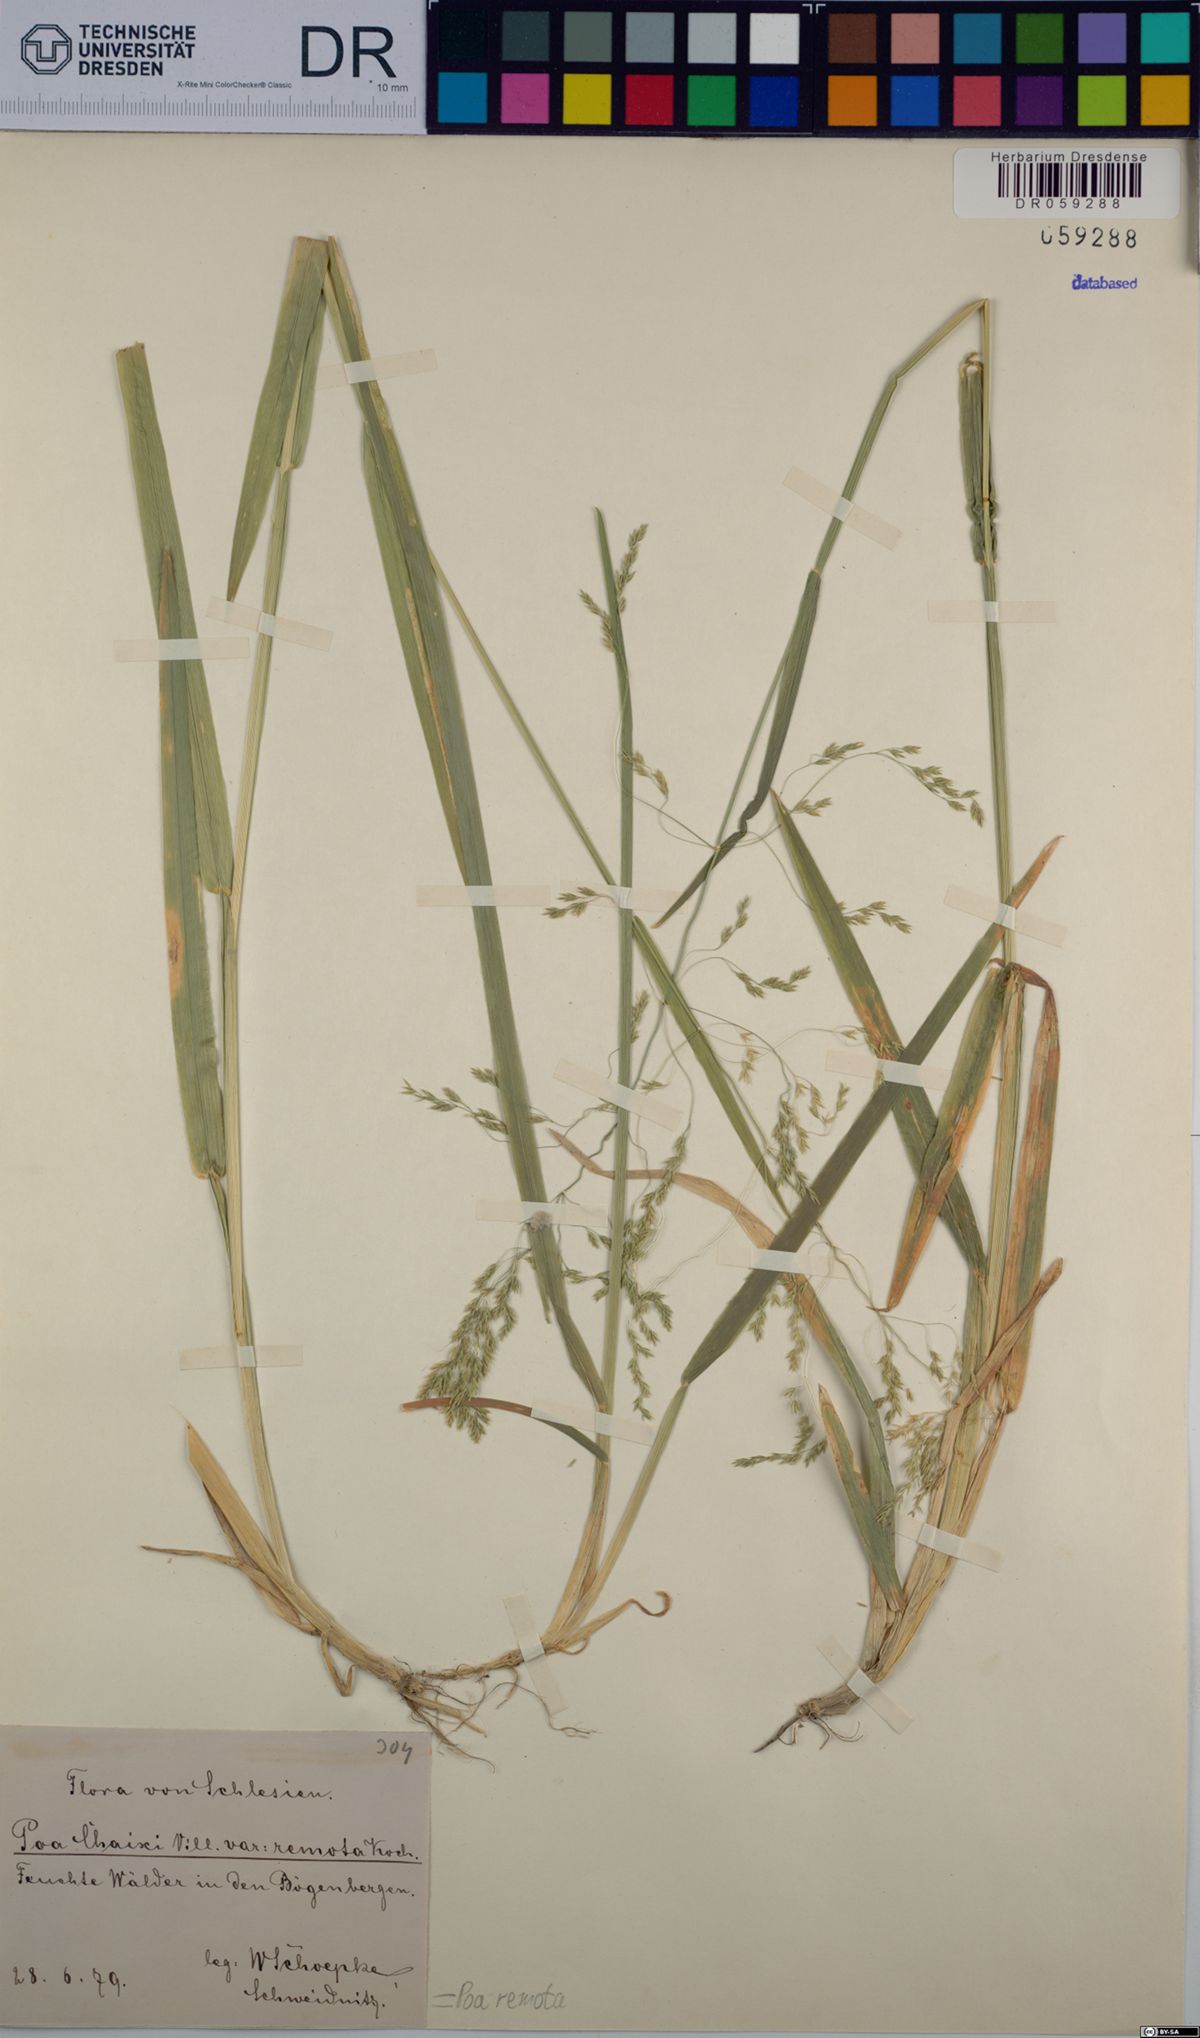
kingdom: Plantae
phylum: Tracheophyta
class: Liliopsida
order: Poales
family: Poaceae
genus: Poa
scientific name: Poa remota
